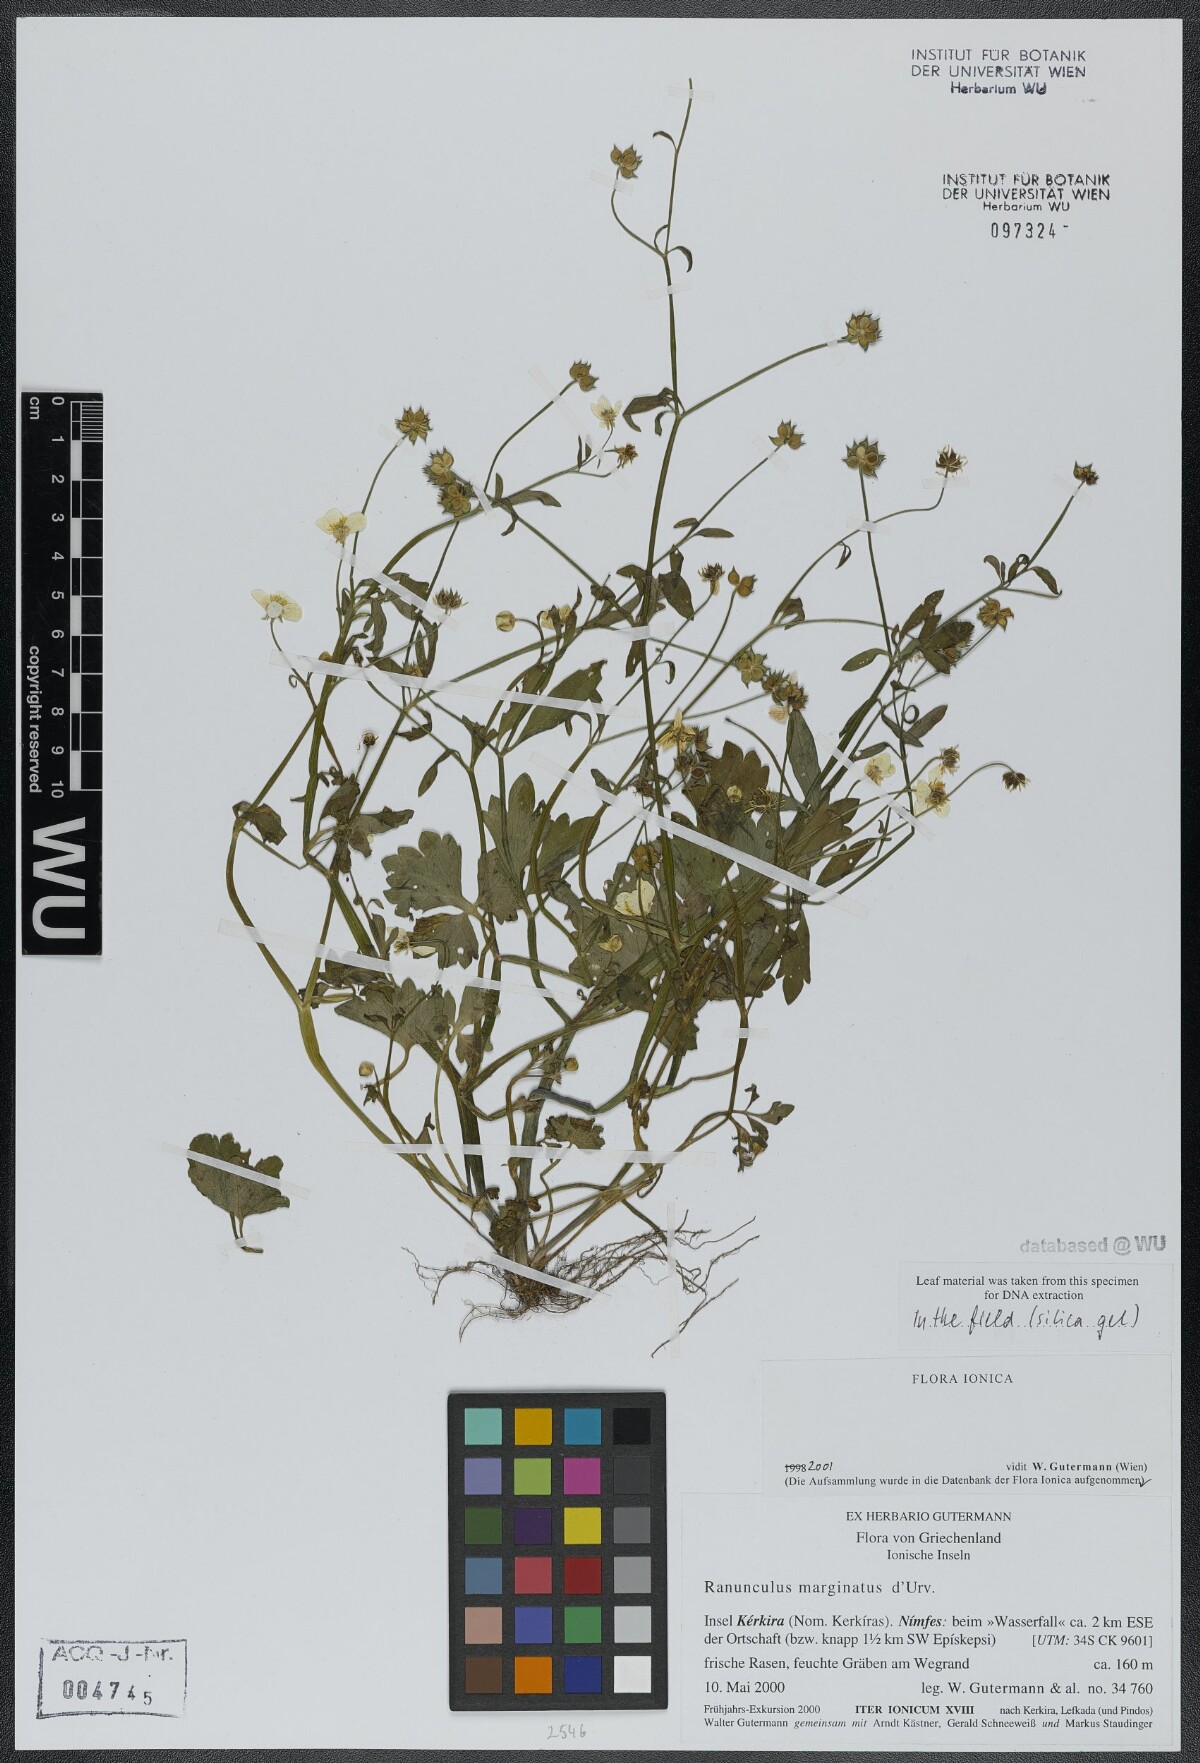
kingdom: Plantae
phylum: Tracheophyta
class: Magnoliopsida
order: Ranunculales
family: Ranunculaceae
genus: Ranunculus
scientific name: Ranunculus marginatus
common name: St. martin's buttercup
